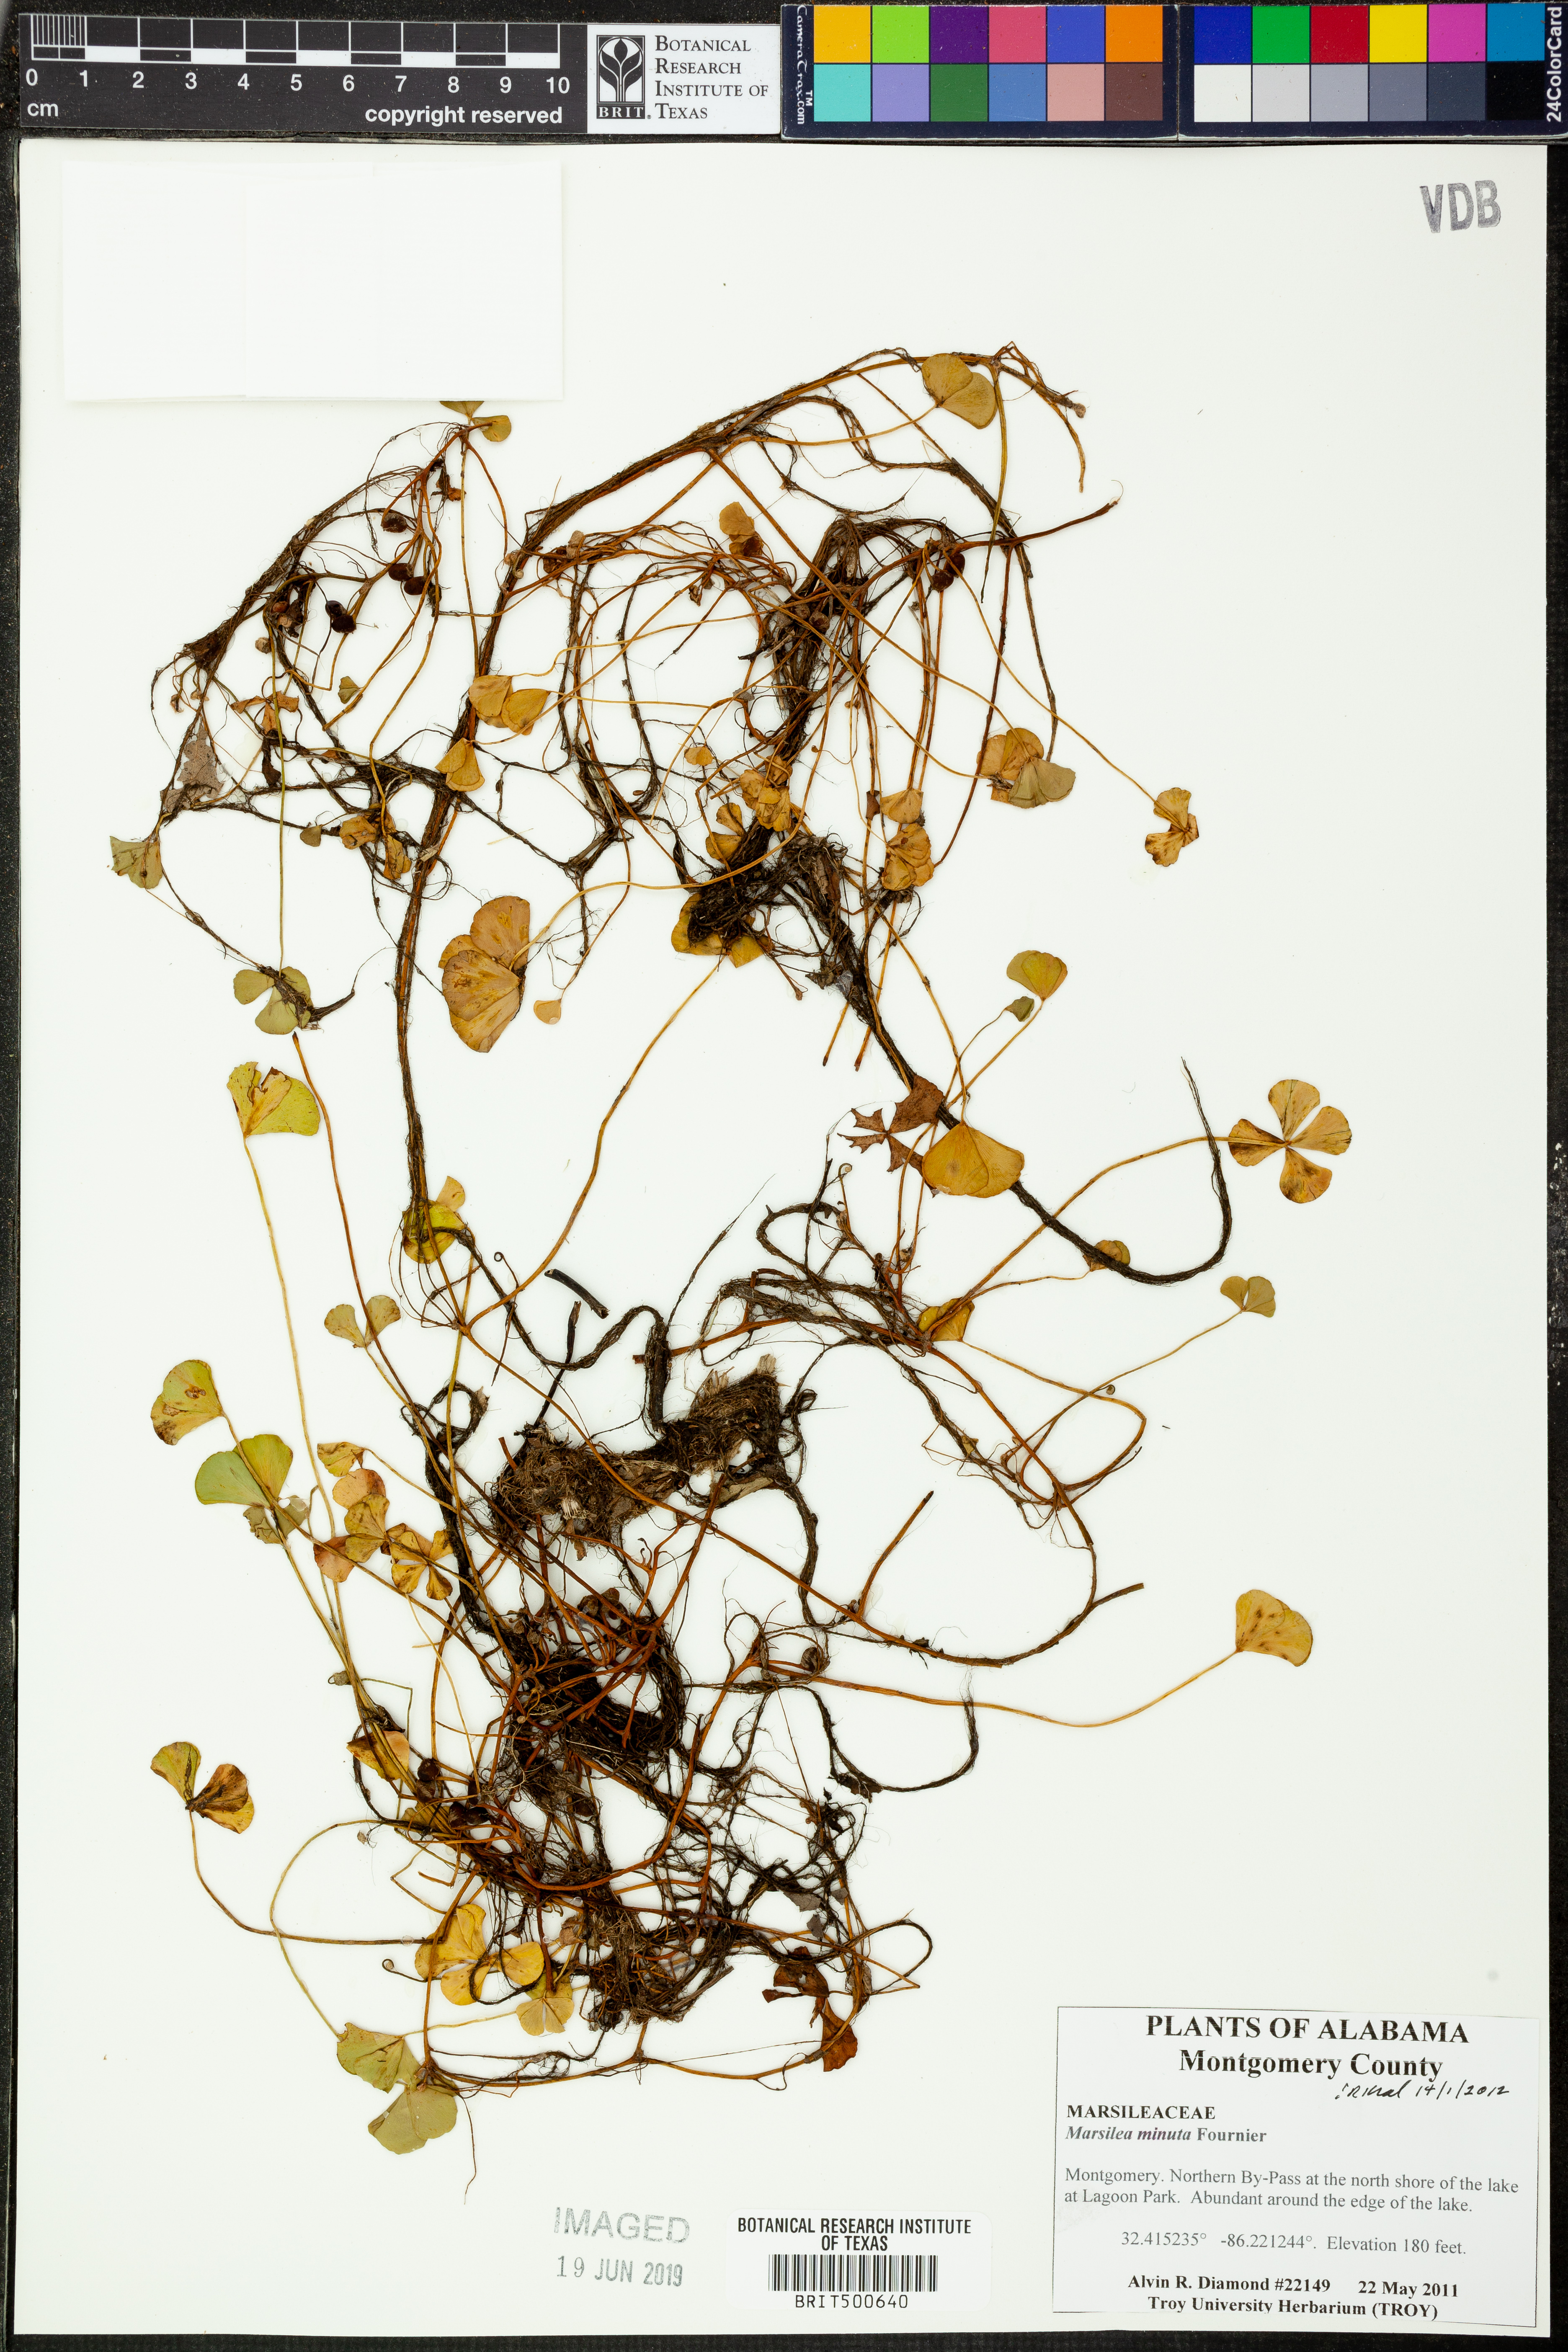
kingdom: Plantae
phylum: Tracheophyta
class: Polypodiopsida
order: Salviniales
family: Marsileaceae
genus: Marsilea
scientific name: Marsilea vestita
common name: Hooked-pepperwort
